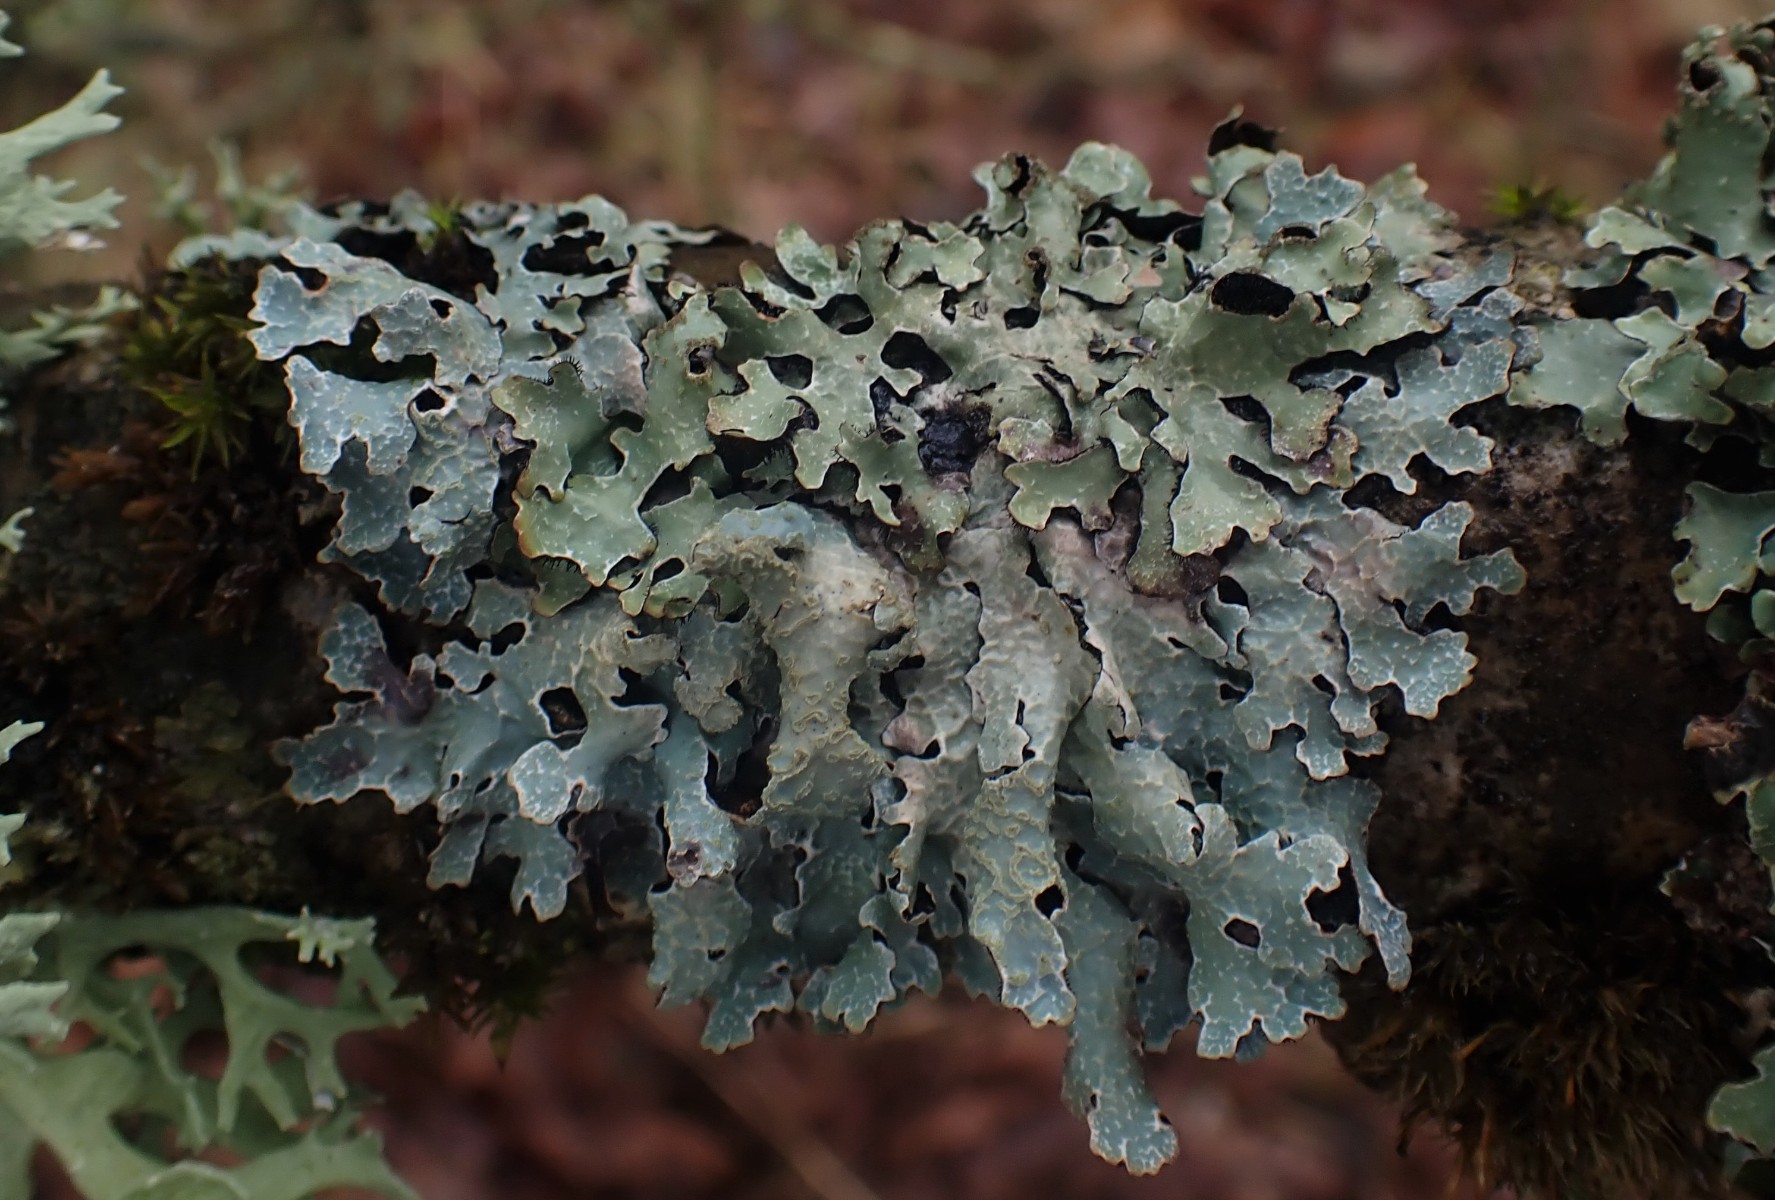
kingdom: Fungi
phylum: Ascomycota
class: Lecanoromycetes
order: Lecanorales
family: Parmeliaceae
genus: Parmelia
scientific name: Parmelia sulcata
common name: rynket skållav
